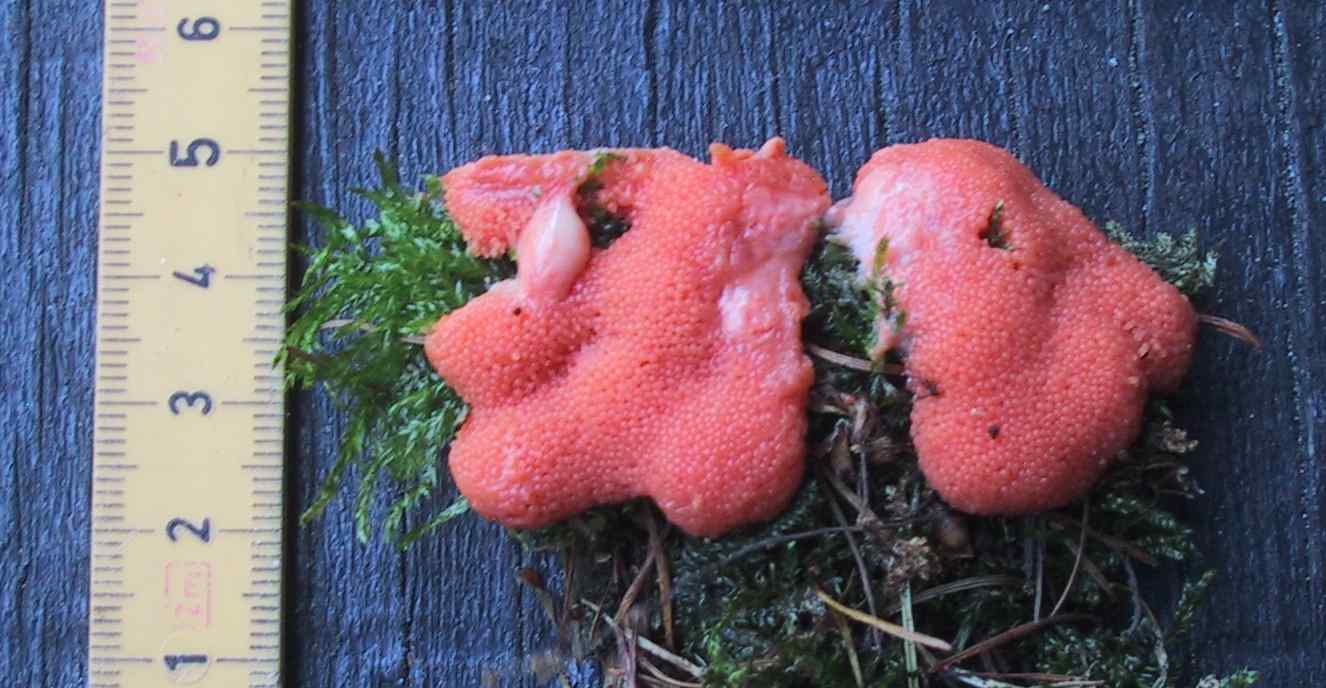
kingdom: Protozoa
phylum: Mycetozoa
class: Myxomycetes
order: Cribrariales
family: Tubiferaceae
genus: Tubifera
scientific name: Tubifera ferruginosa
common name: kanel-støvrør
